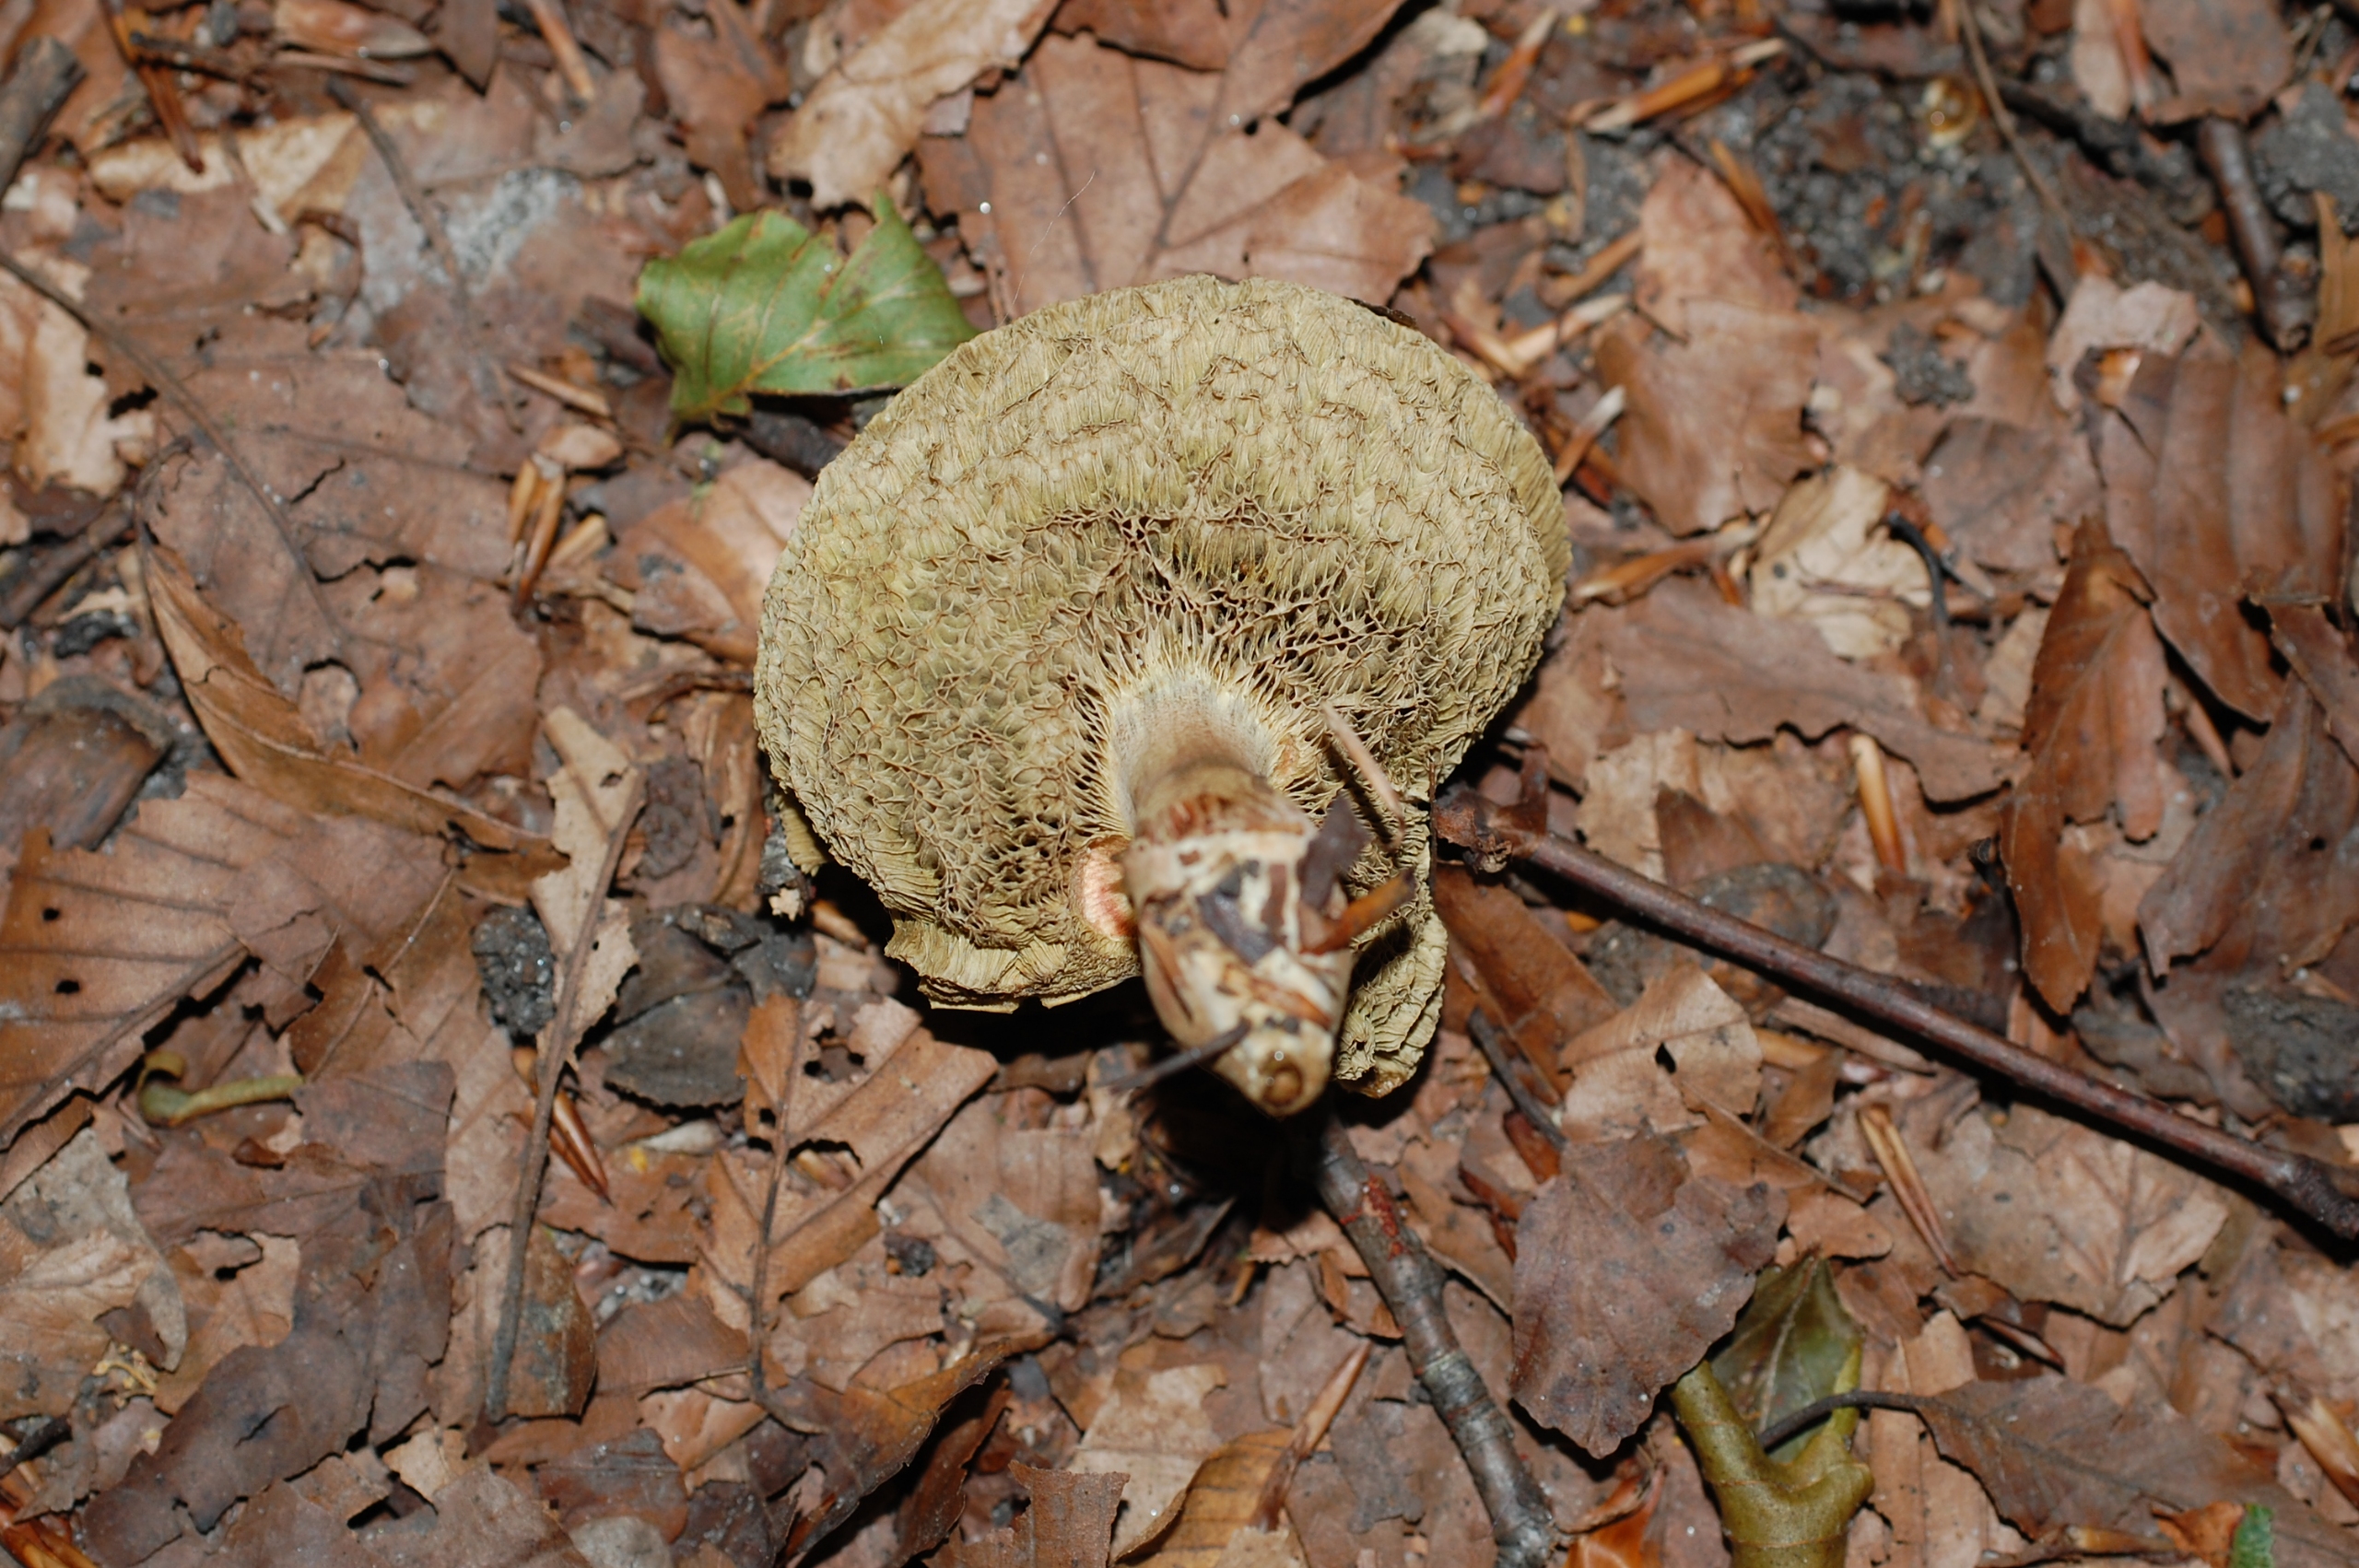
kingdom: Fungi
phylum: Basidiomycota
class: Agaricomycetes
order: Boletales
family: Boletaceae
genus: Xerocomellus
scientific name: Xerocomellus
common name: Dværgrørhat
